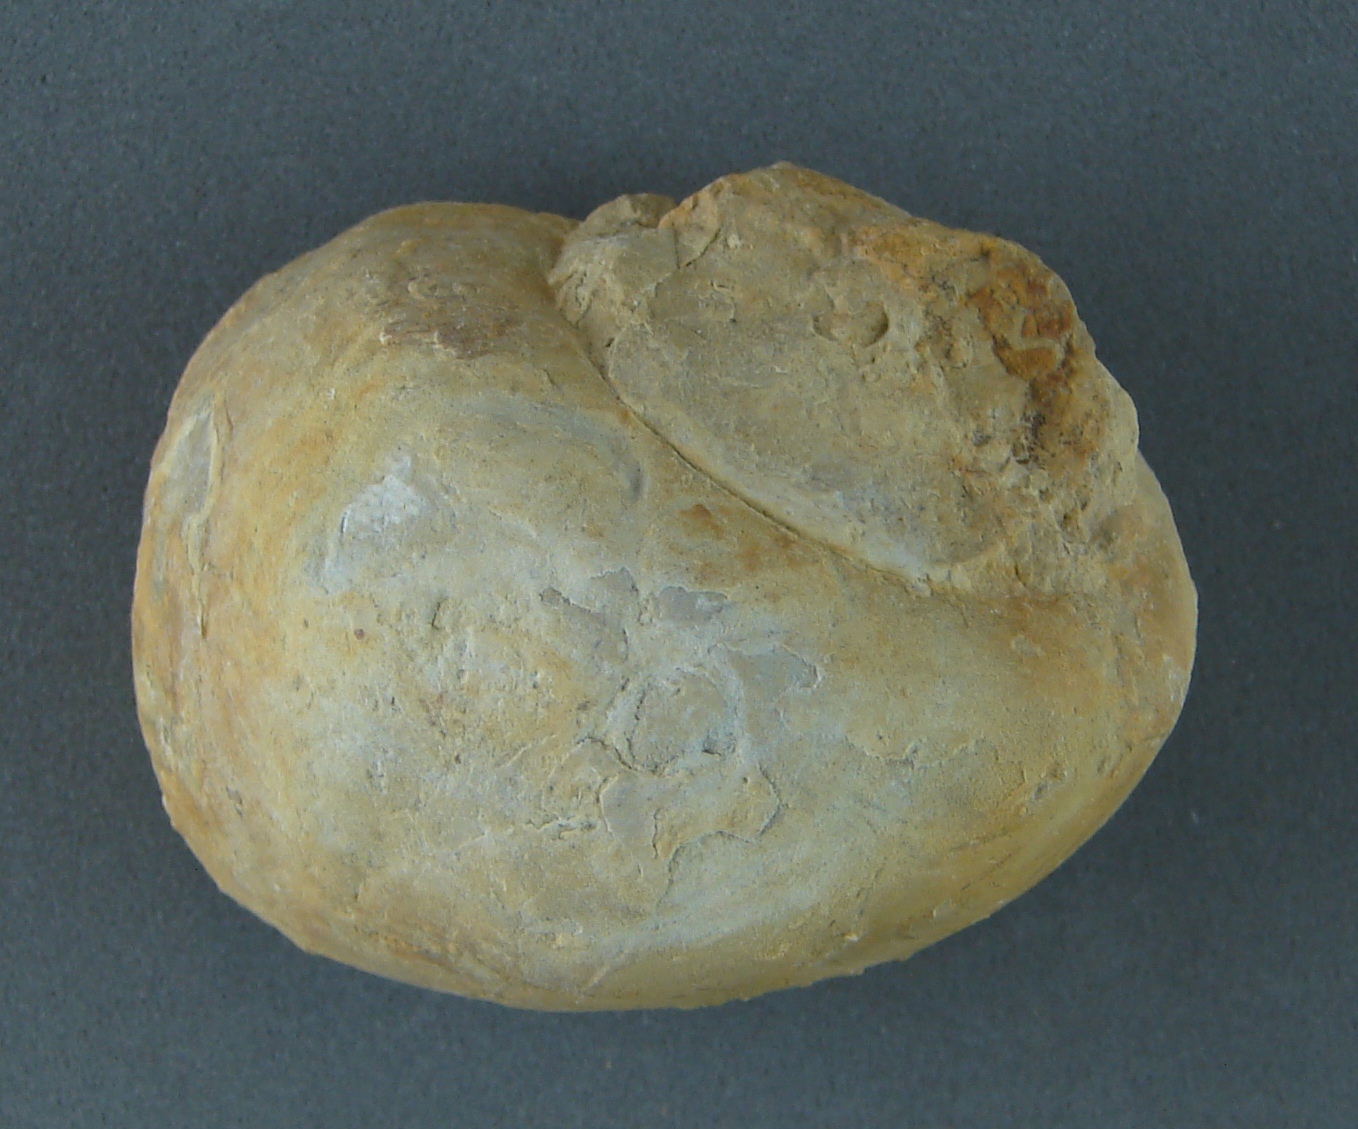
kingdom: Animalia
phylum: Mollusca
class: Gastropoda
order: Architaenioglossa
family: Ampullariidae
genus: Pomacea
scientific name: Pomacea scalaris
